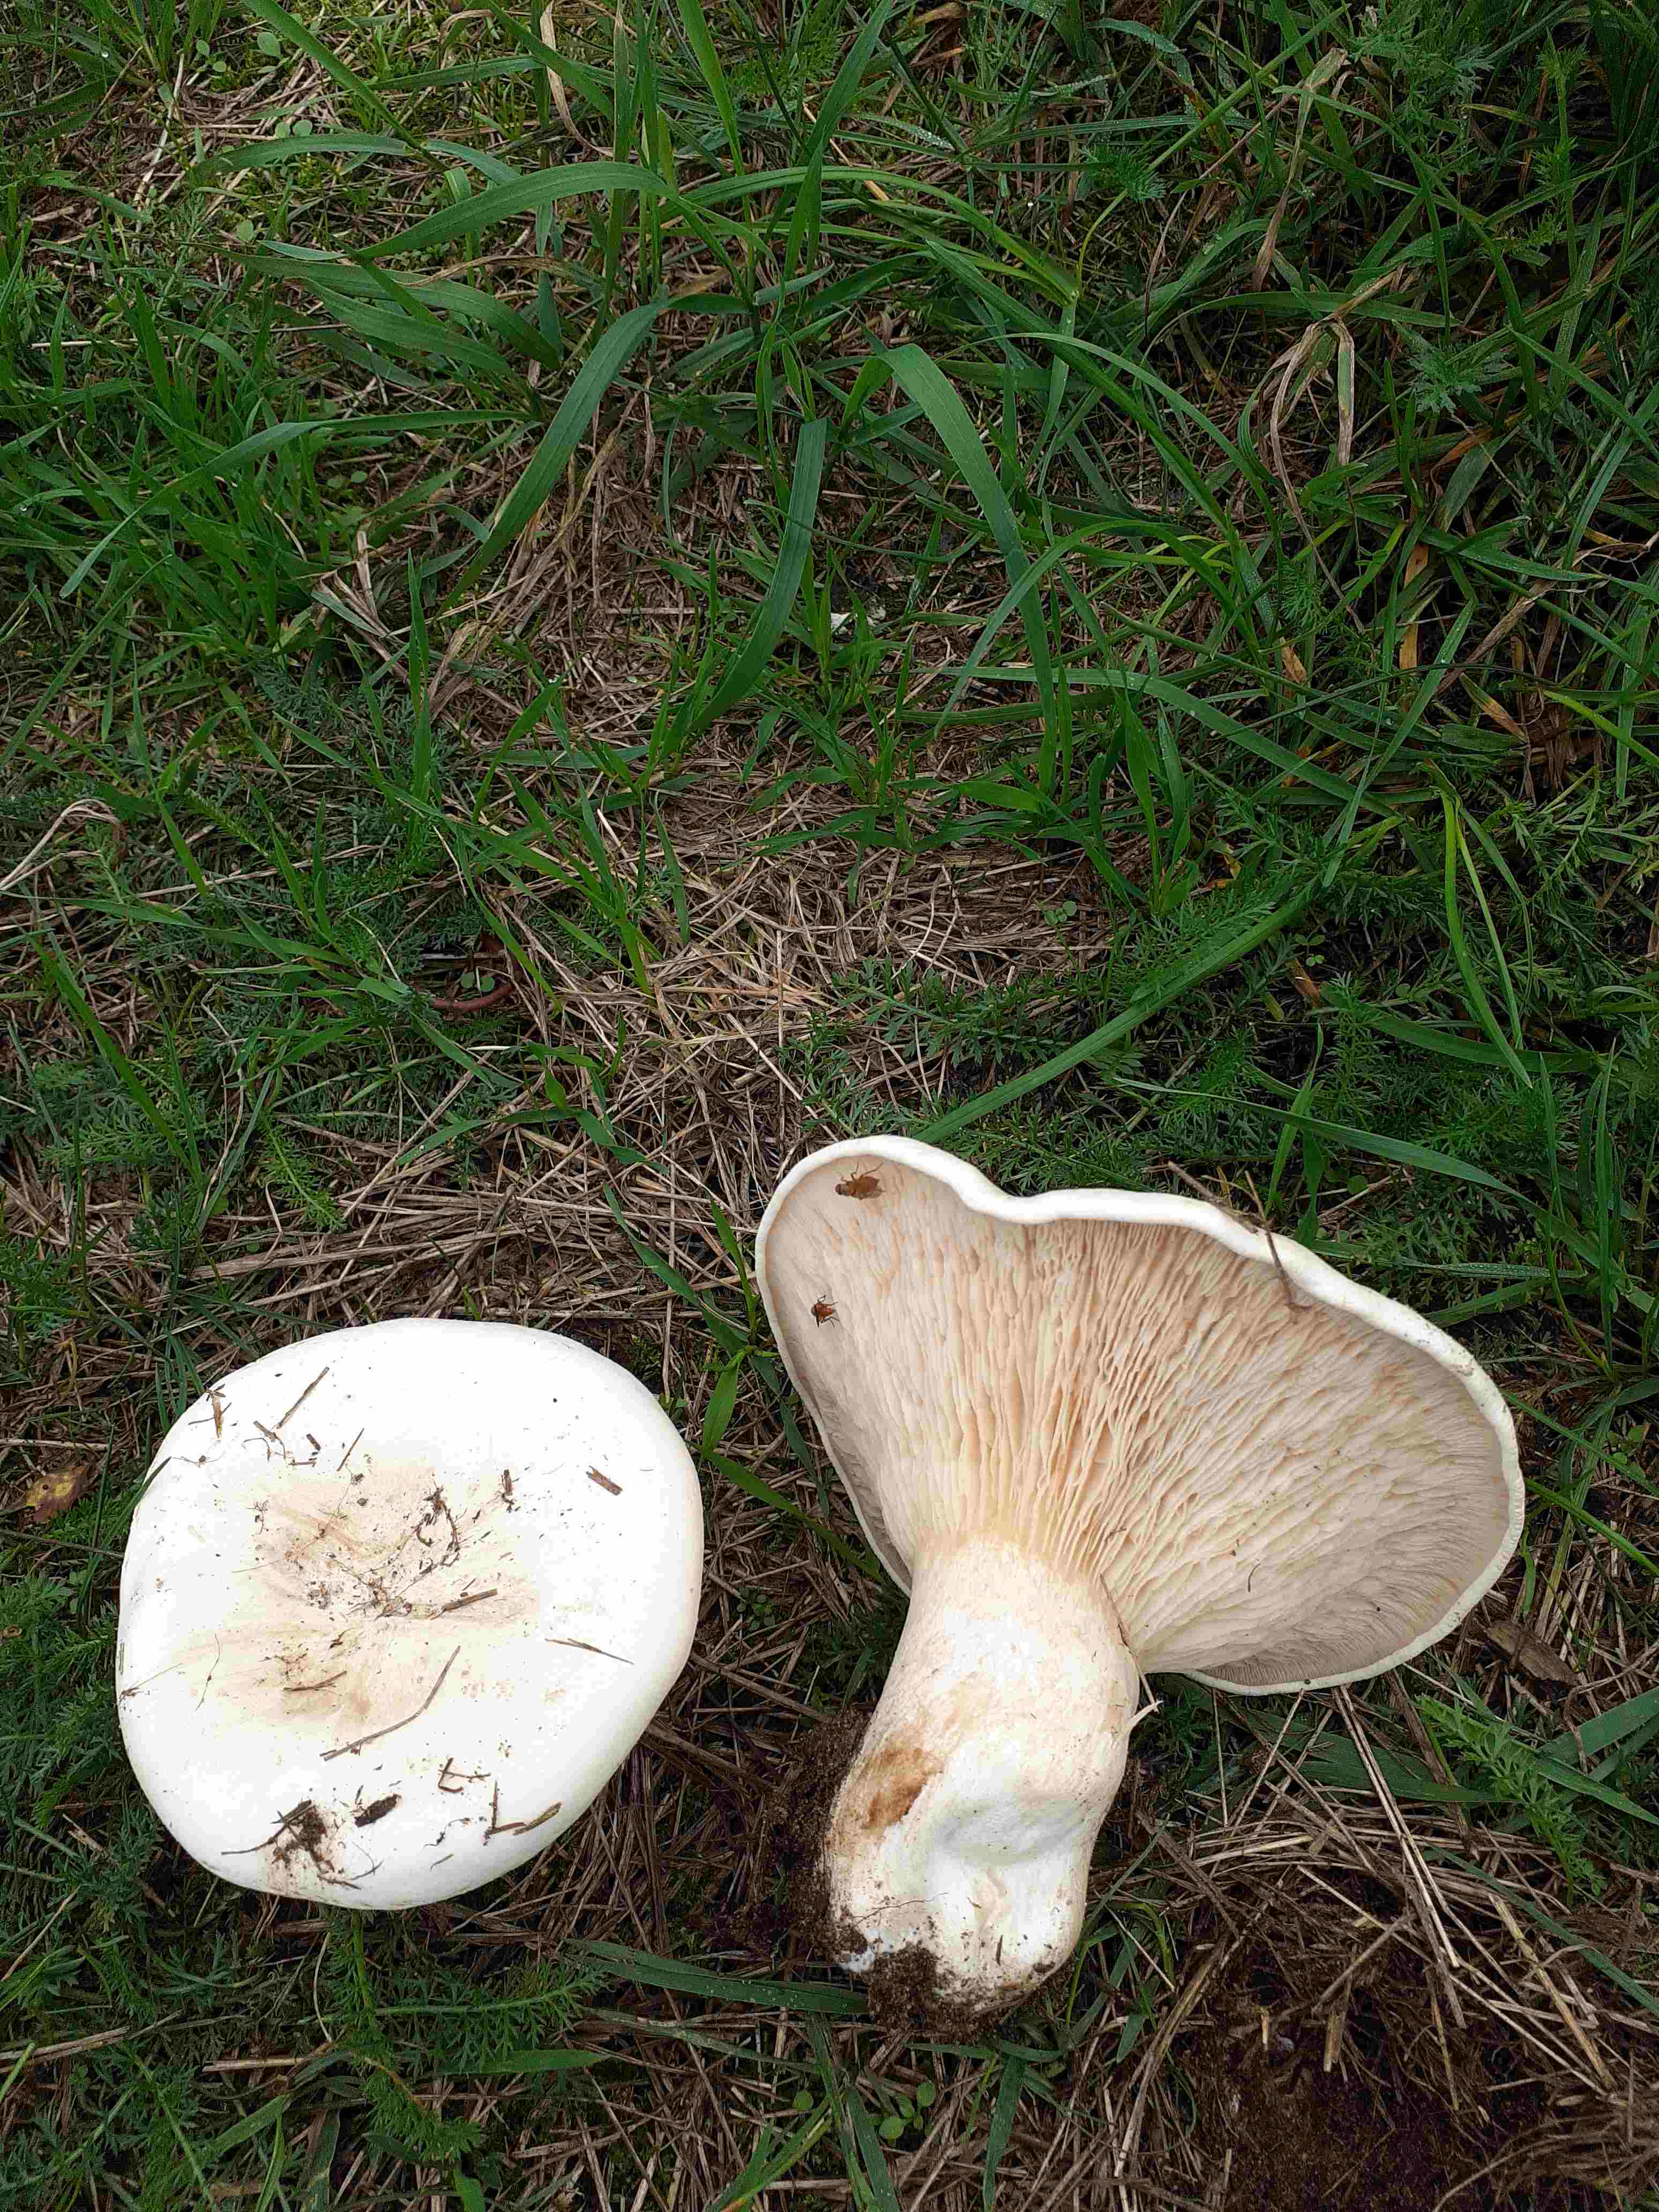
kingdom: Fungi
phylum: Basidiomycota
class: Agaricomycetes
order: Agaricales
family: Tricholomataceae
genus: Aspropaxillus
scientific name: Aspropaxillus giganteus
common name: kæmpe-tragtridderhat
